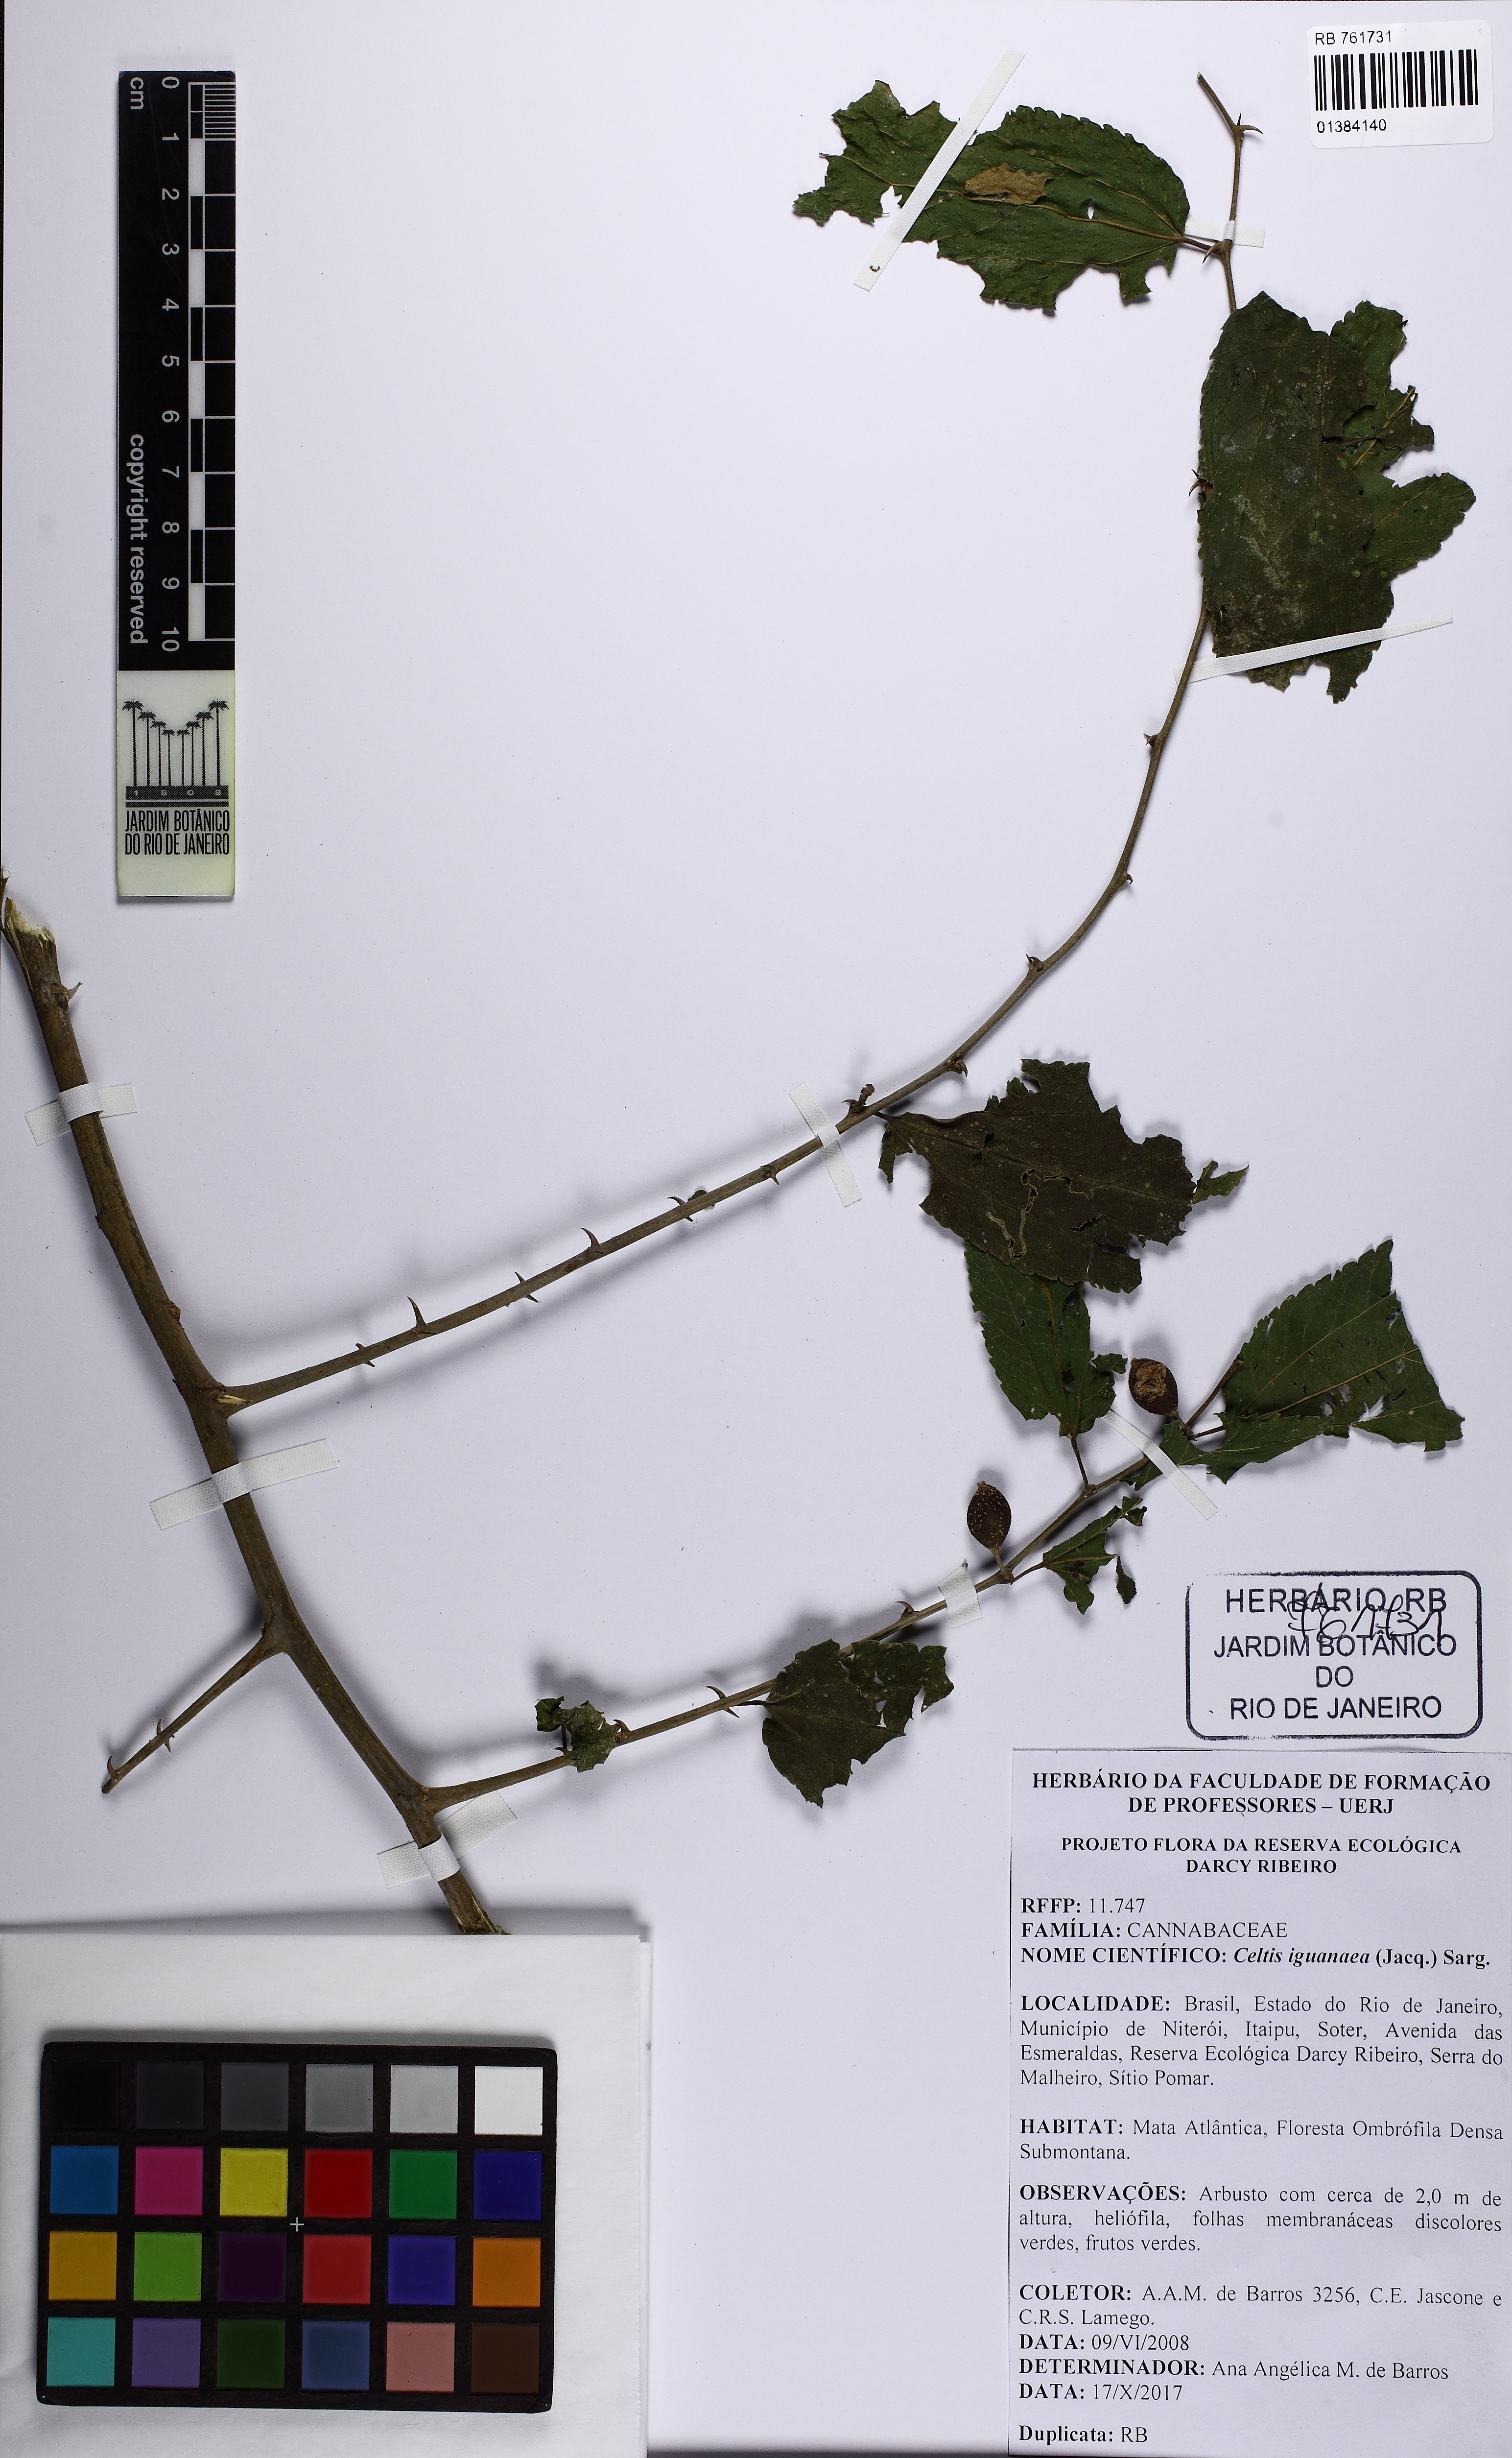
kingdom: Plantae
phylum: Tracheophyta
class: Magnoliopsida
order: Rosales
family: Cannabaceae
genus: Celtis
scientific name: Celtis iguanaea
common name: Iguana hackberry
